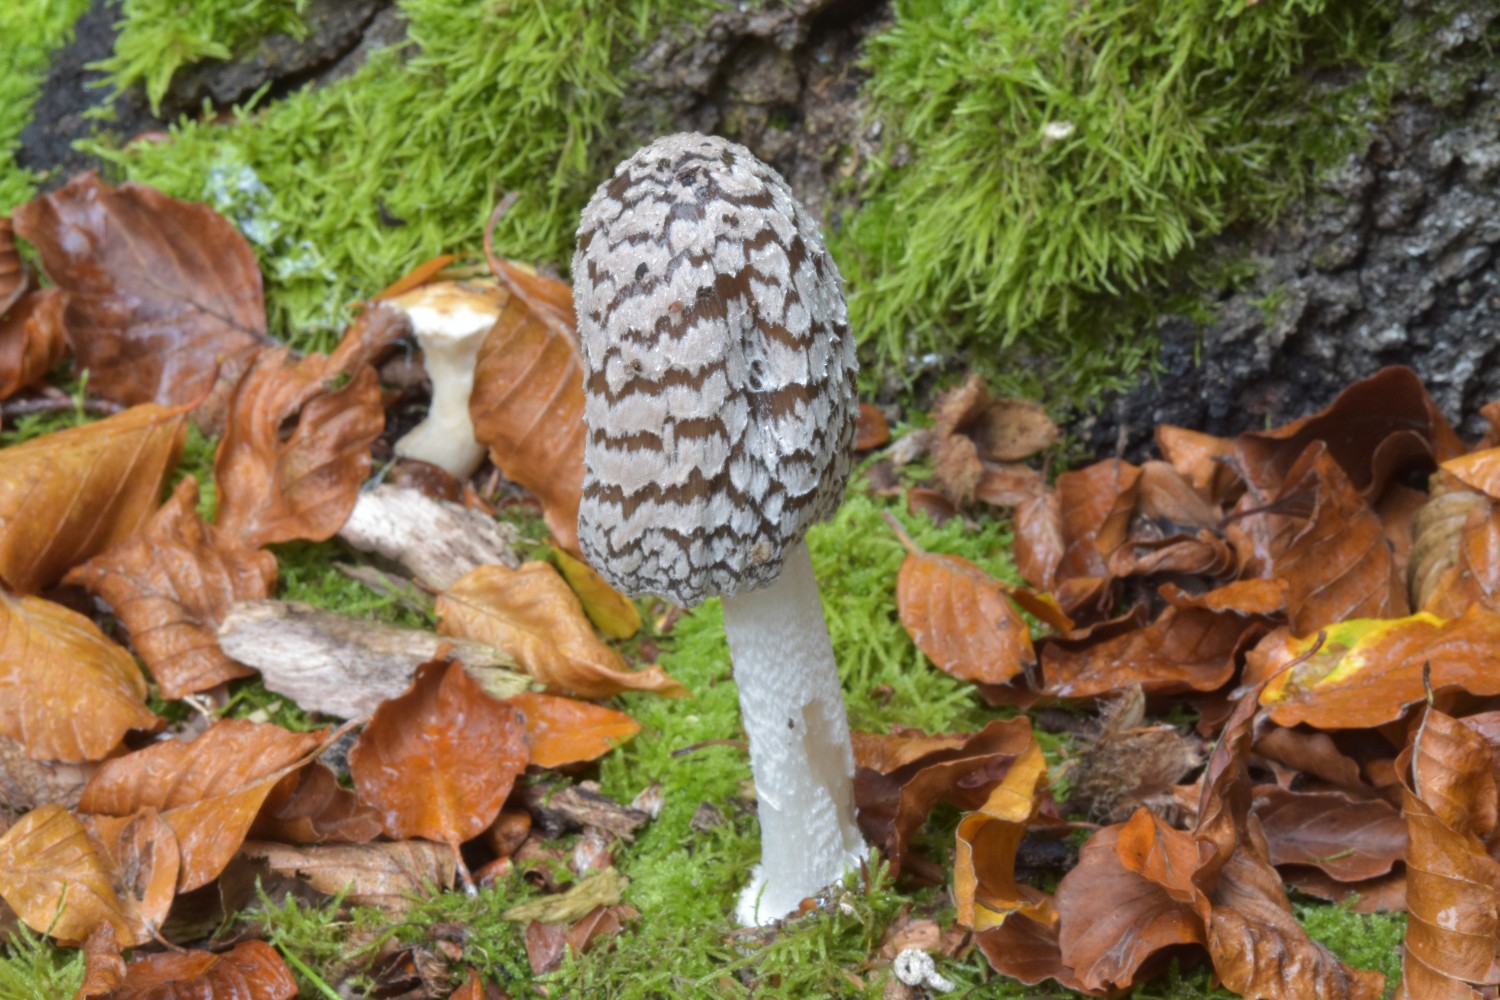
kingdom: Fungi
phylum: Basidiomycota
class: Agaricomycetes
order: Agaricales
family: Psathyrellaceae
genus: Coprinopsis
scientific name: Coprinopsis picacea
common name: skade-blækhat
